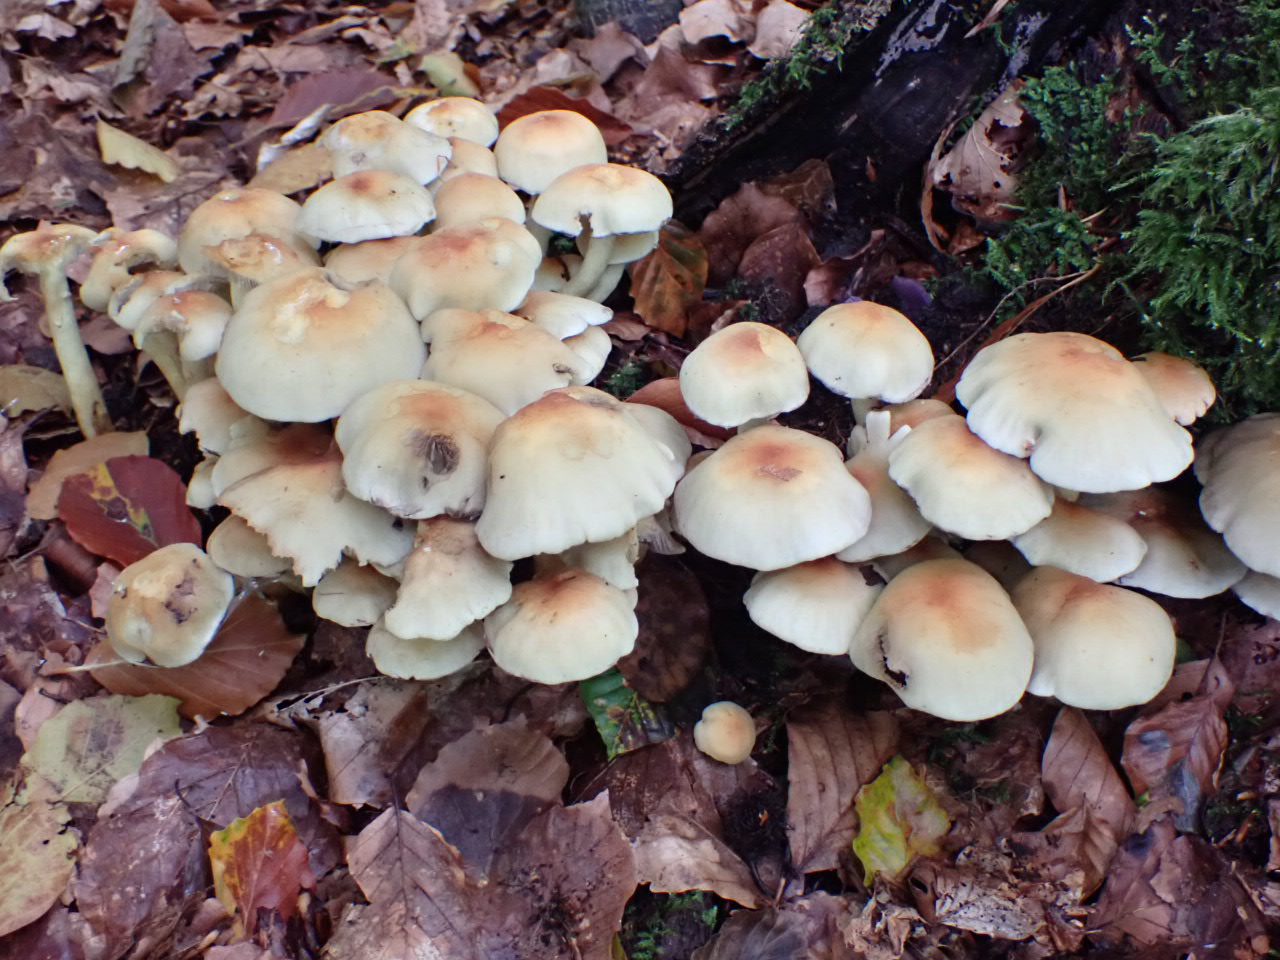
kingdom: Fungi
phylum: Basidiomycota
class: Agaricomycetes
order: Agaricales
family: Strophariaceae
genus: Hypholoma
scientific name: Hypholoma fasciculare
